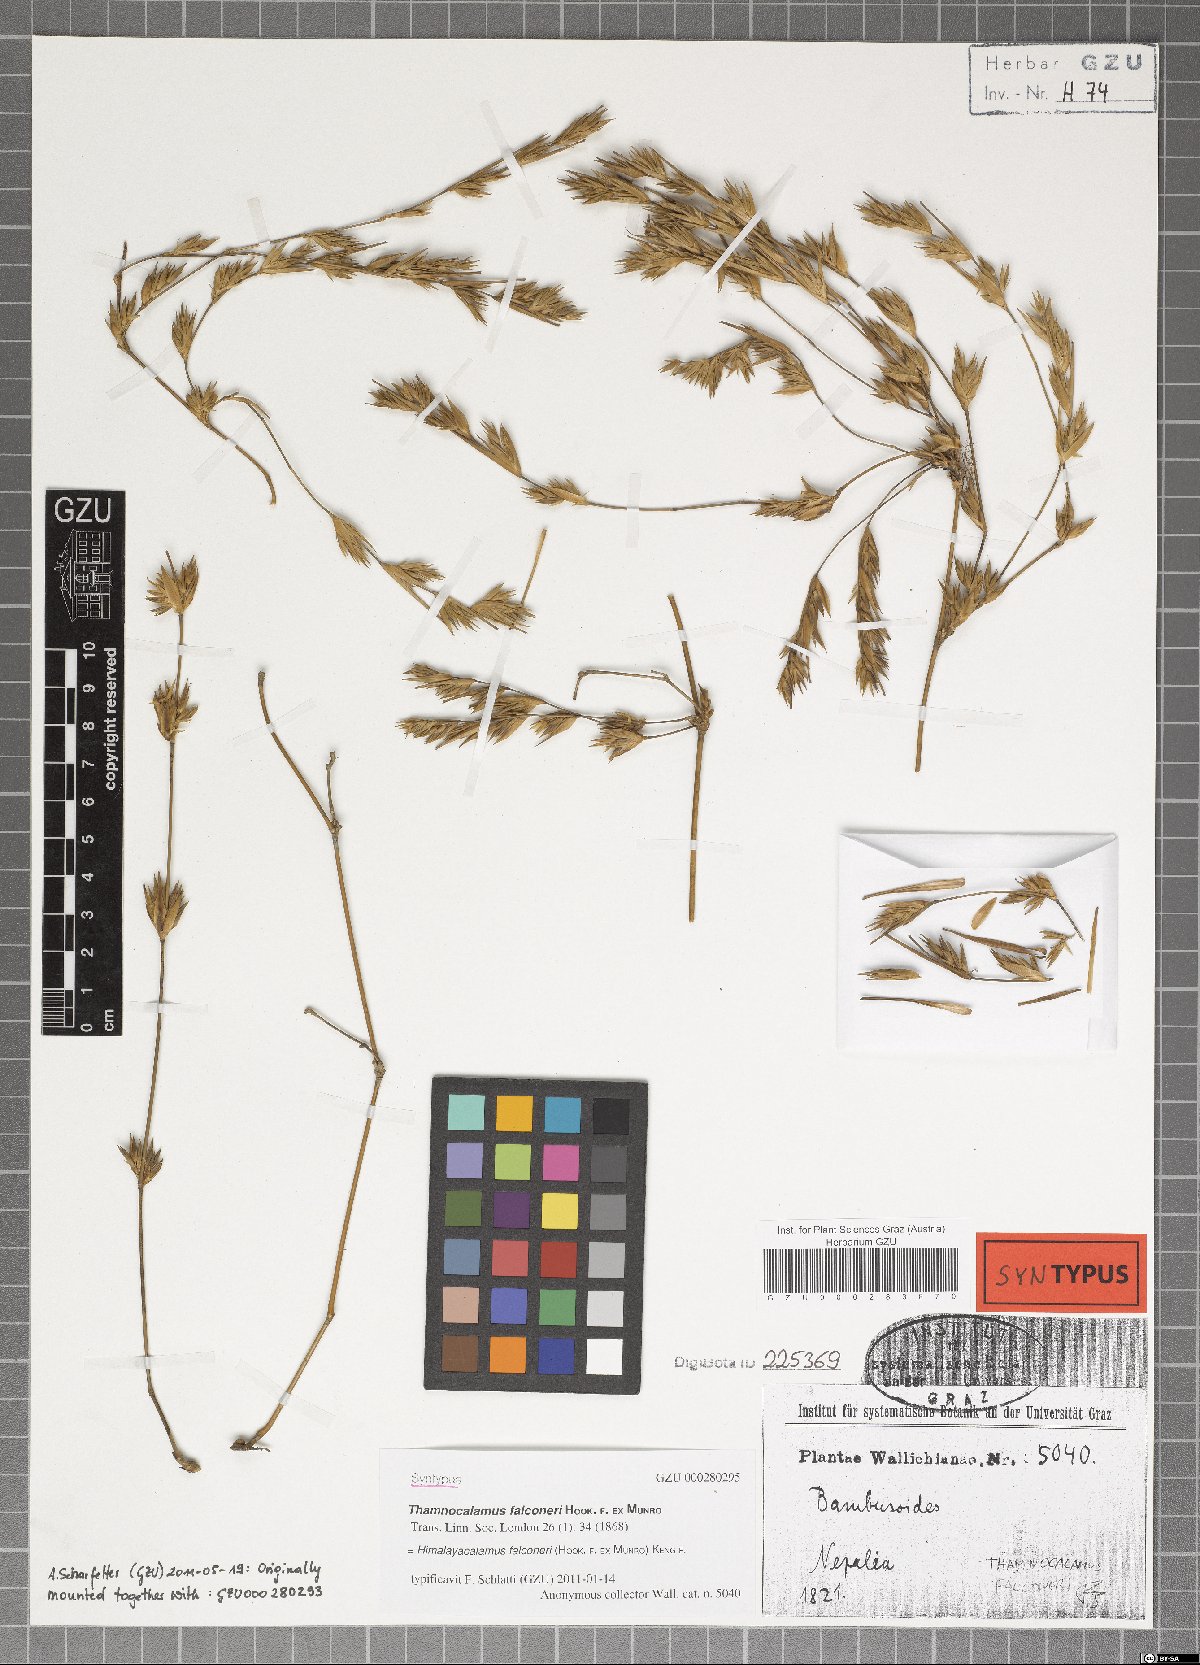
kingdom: Plantae
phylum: Tracheophyta
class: Liliopsida
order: Poales
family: Poaceae
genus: Himalayacalamus
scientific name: Himalayacalamus falconeri
